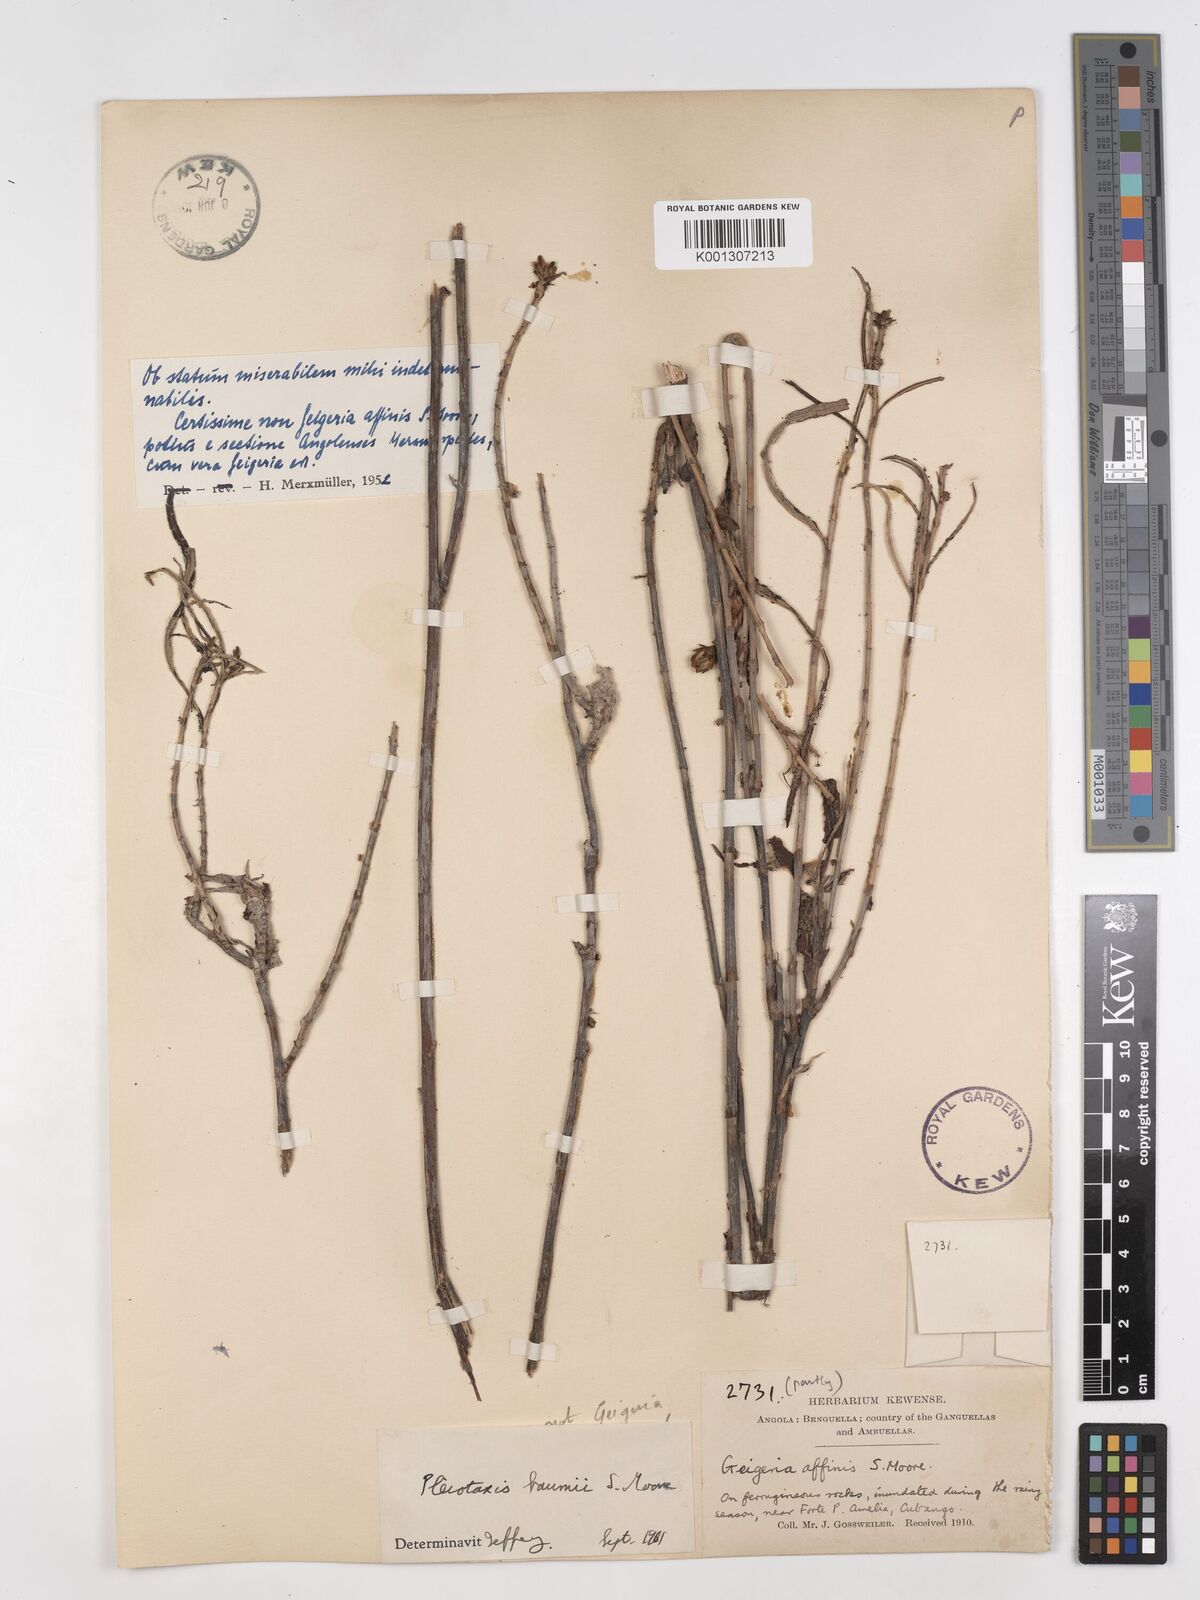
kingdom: Plantae
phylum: Tracheophyta
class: Magnoliopsida
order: Asterales
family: Asteraceae
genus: Pleiotaxis
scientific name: Pleiotaxis
